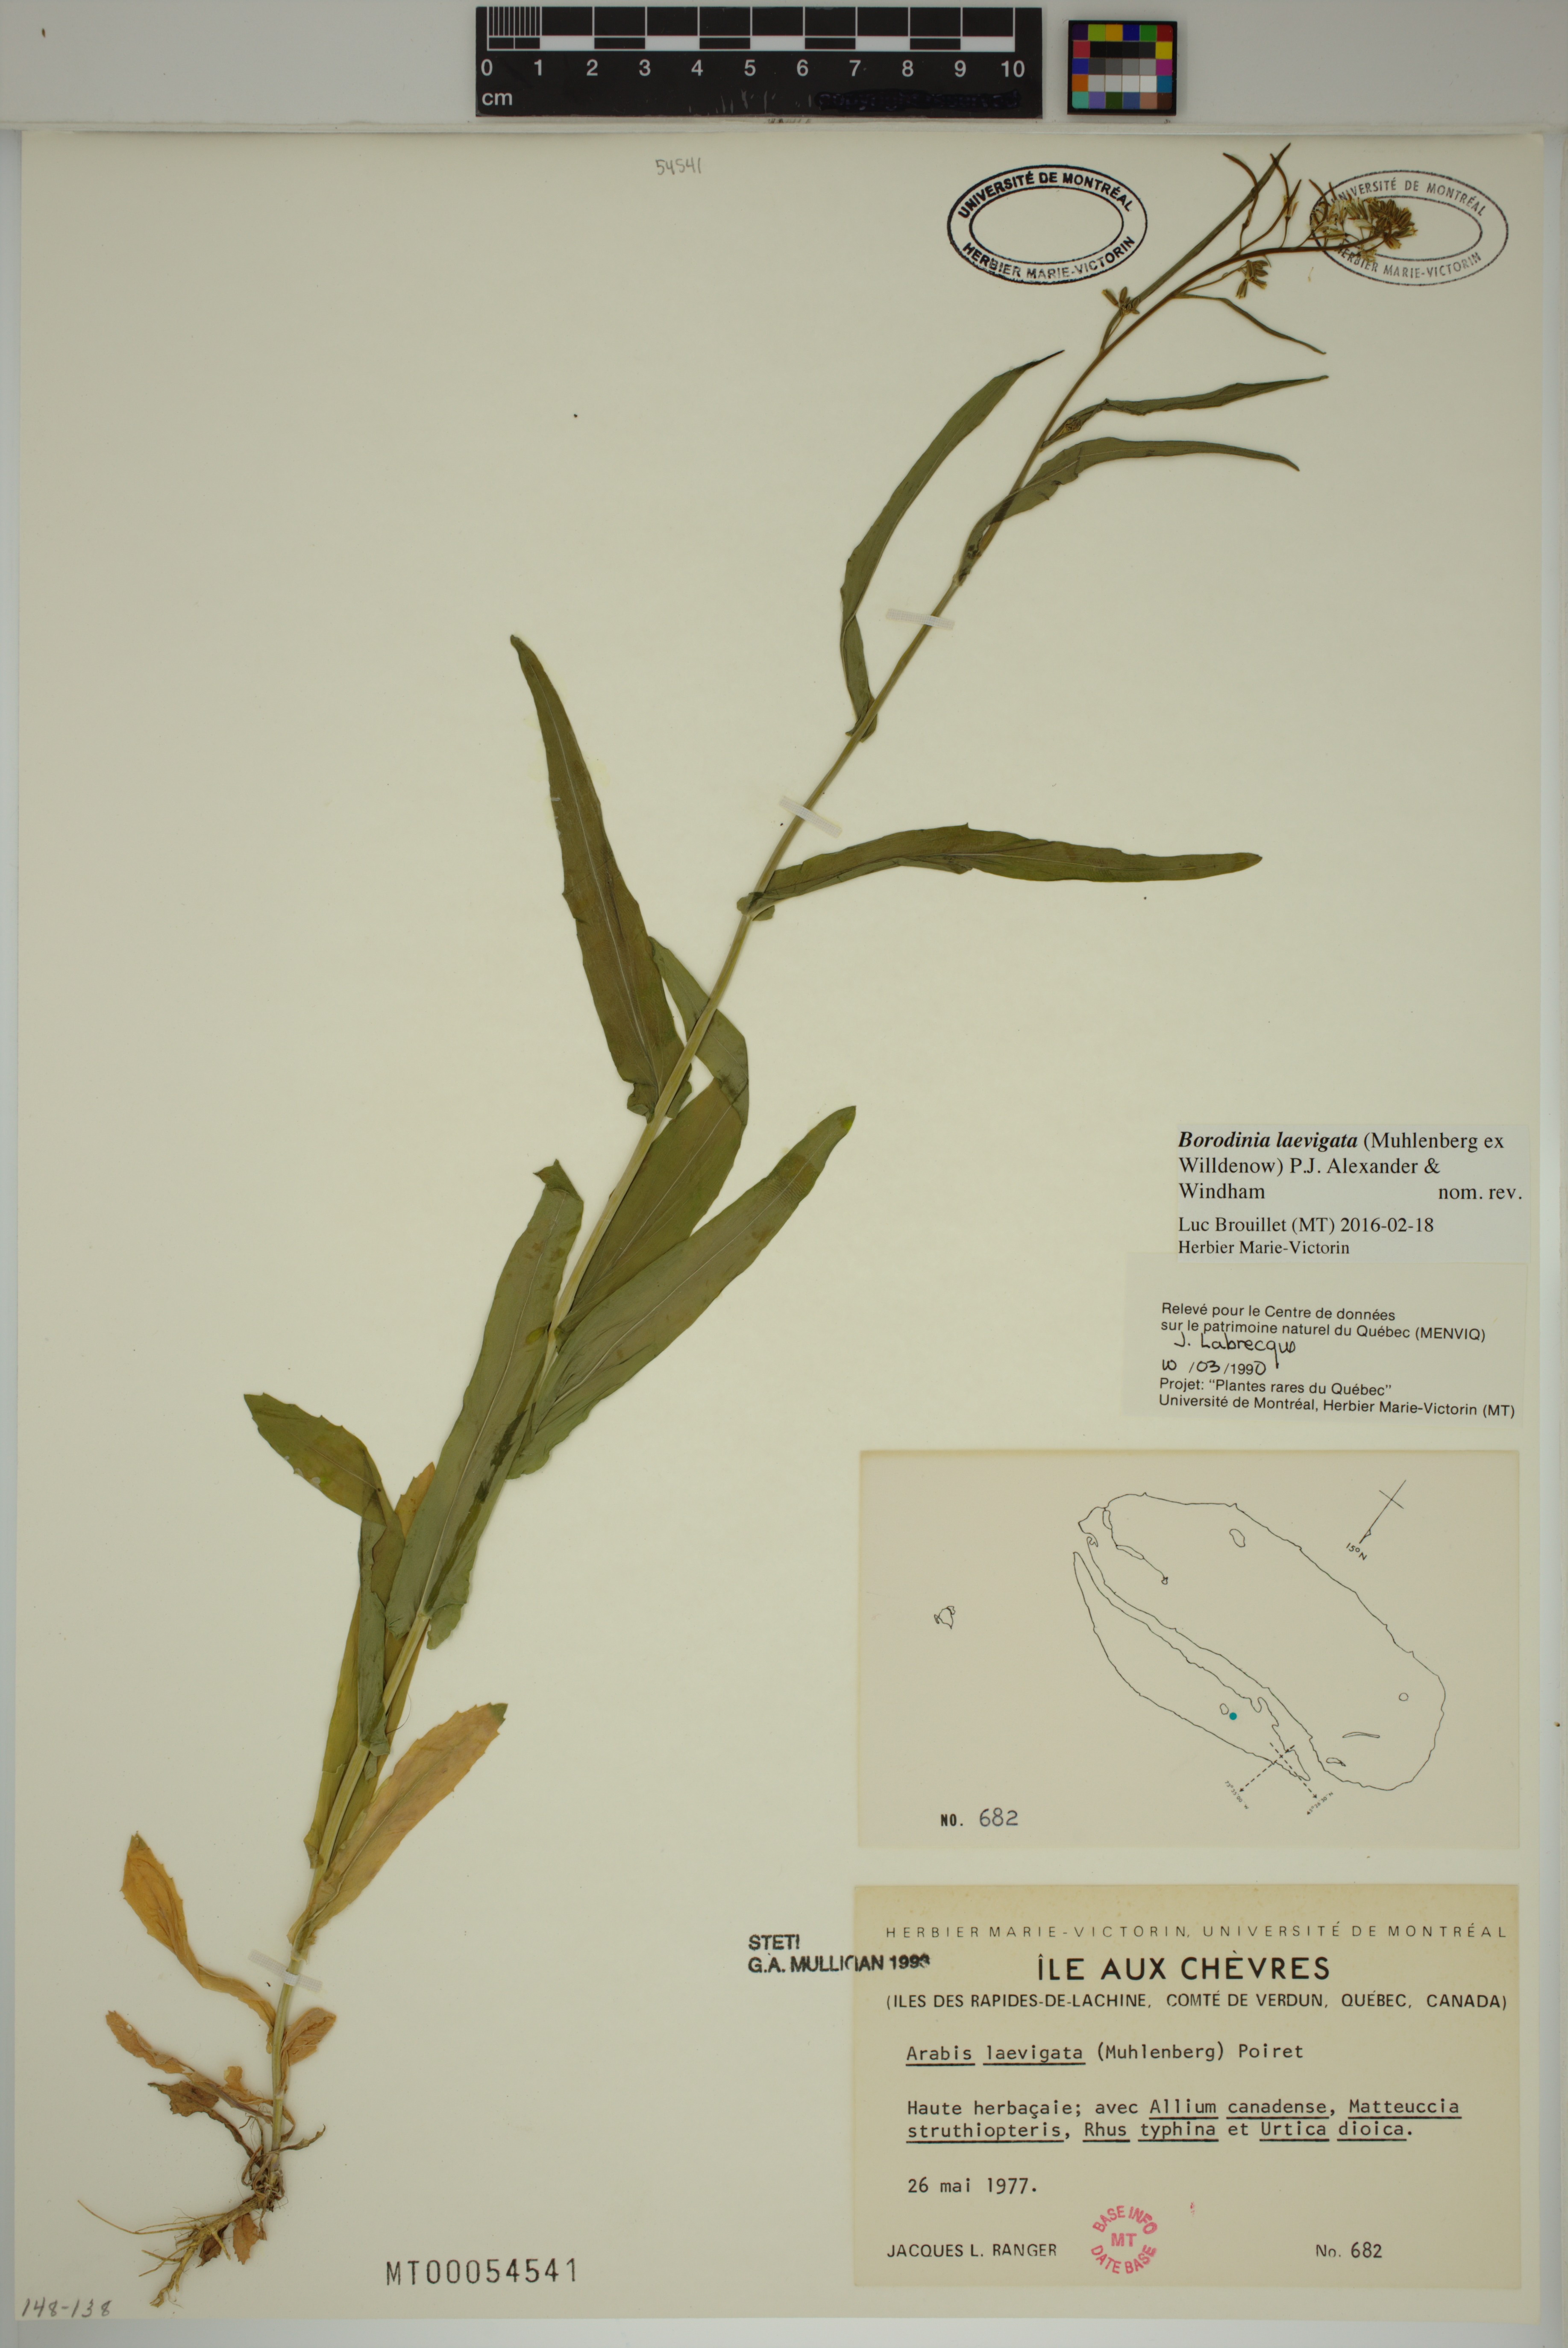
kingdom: Plantae
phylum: Tracheophyta
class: Magnoliopsida
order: Brassicales
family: Brassicaceae
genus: Borodinia
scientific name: Borodinia laevigata
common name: Smooth rockcress
